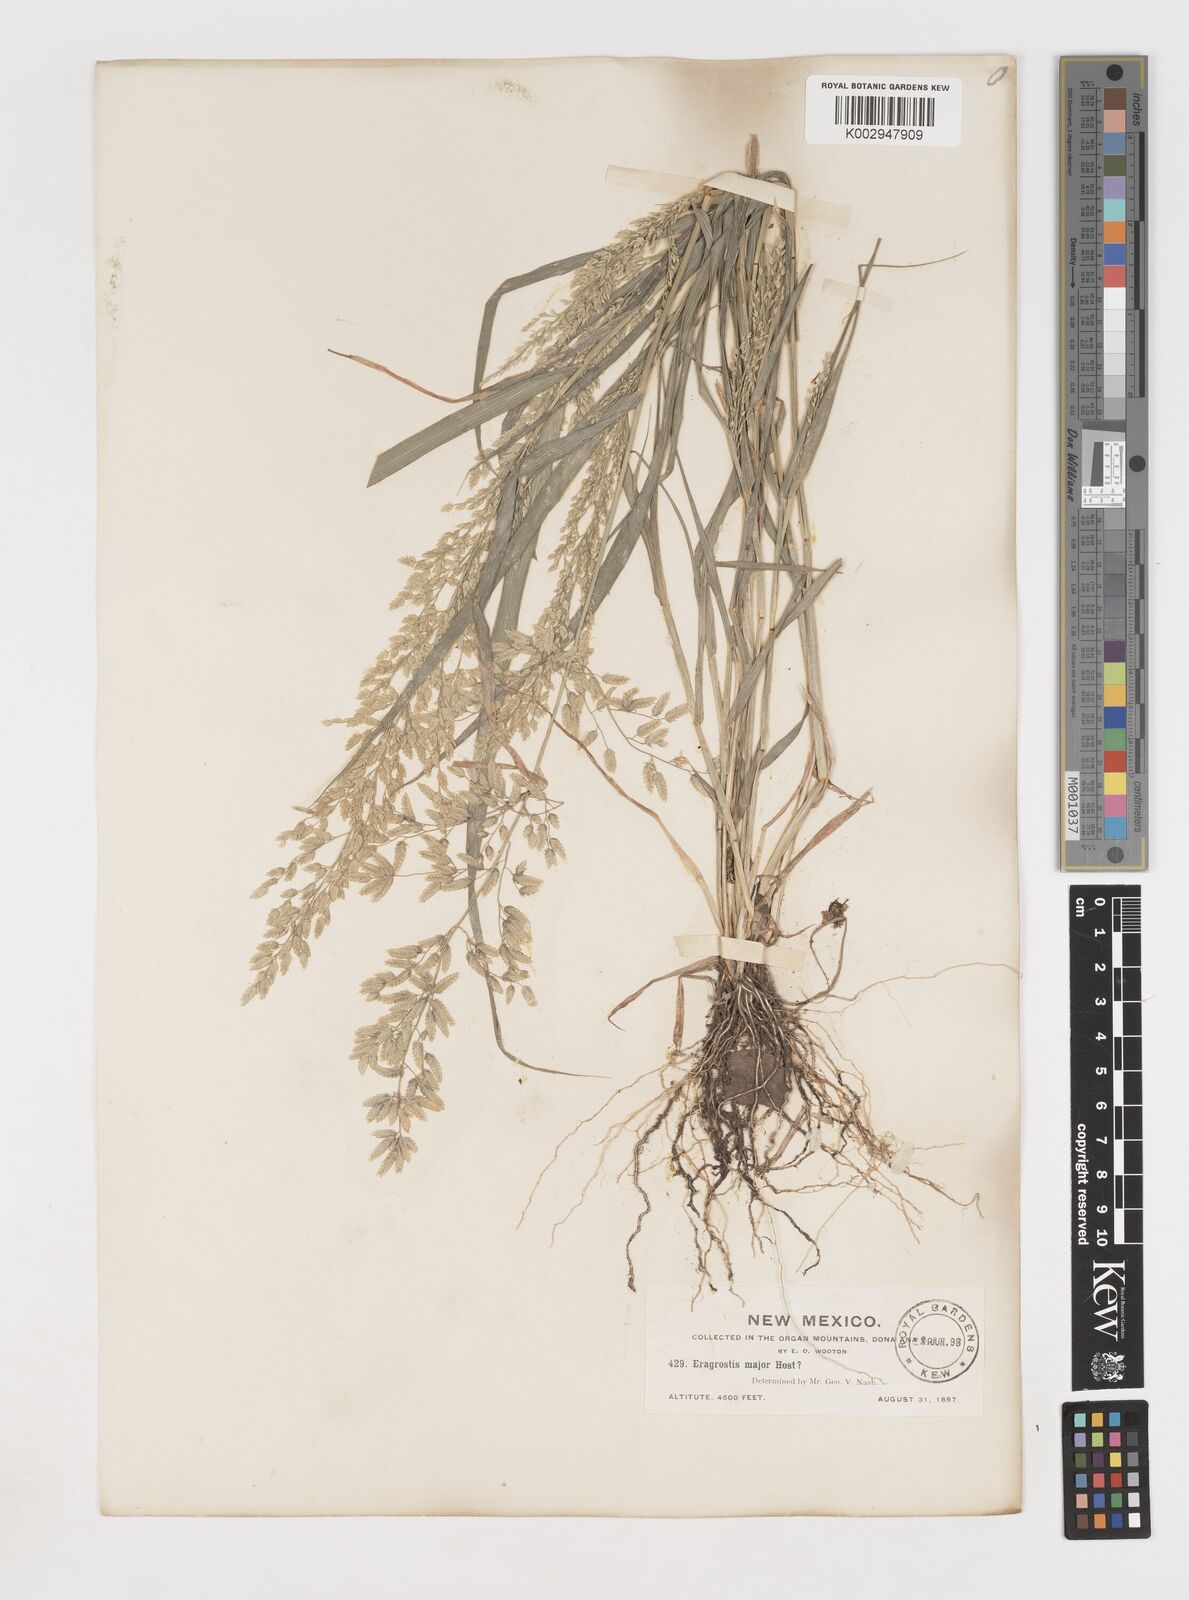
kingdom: Plantae
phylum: Tracheophyta
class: Liliopsida
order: Poales
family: Poaceae
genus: Eragrostis
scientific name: Eragrostis
